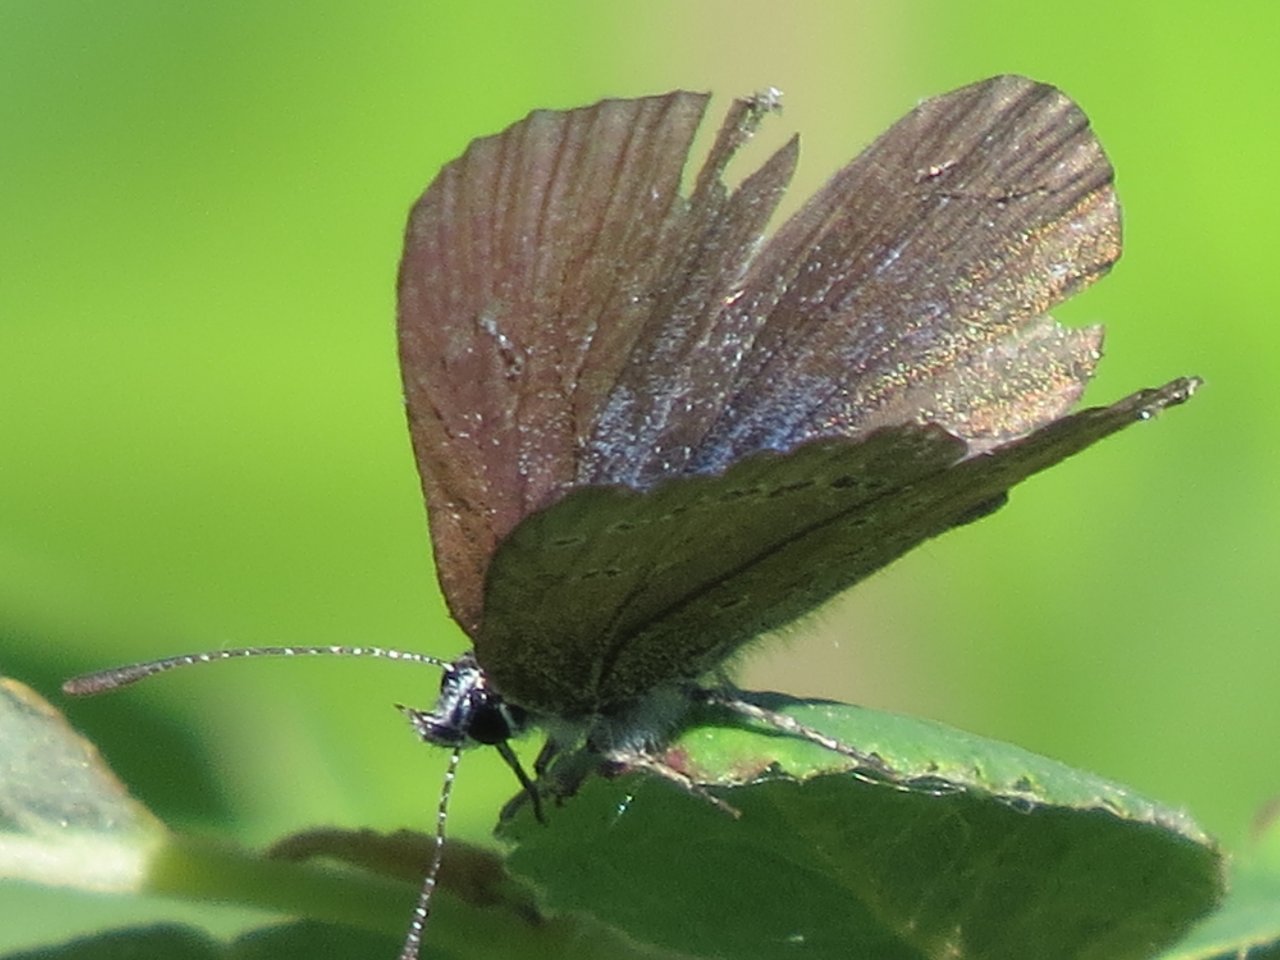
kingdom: Animalia
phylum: Arthropoda
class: Insecta
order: Lepidoptera
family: Lycaenidae
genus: Agriades
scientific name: Agriades glandon
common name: Arctic Blue
